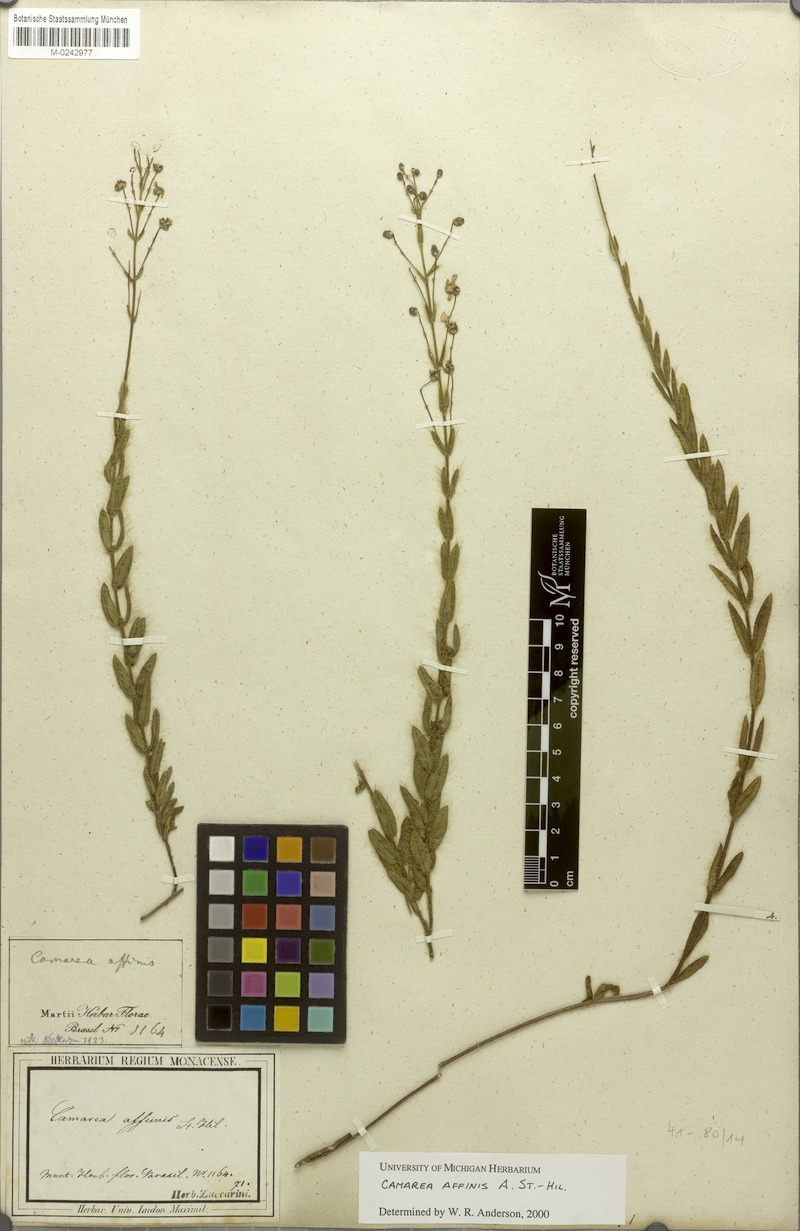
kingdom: Plantae
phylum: Tracheophyta
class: Magnoliopsida
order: Malpighiales
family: Malpighiaceae
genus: Camarea
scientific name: Camarea affinis
